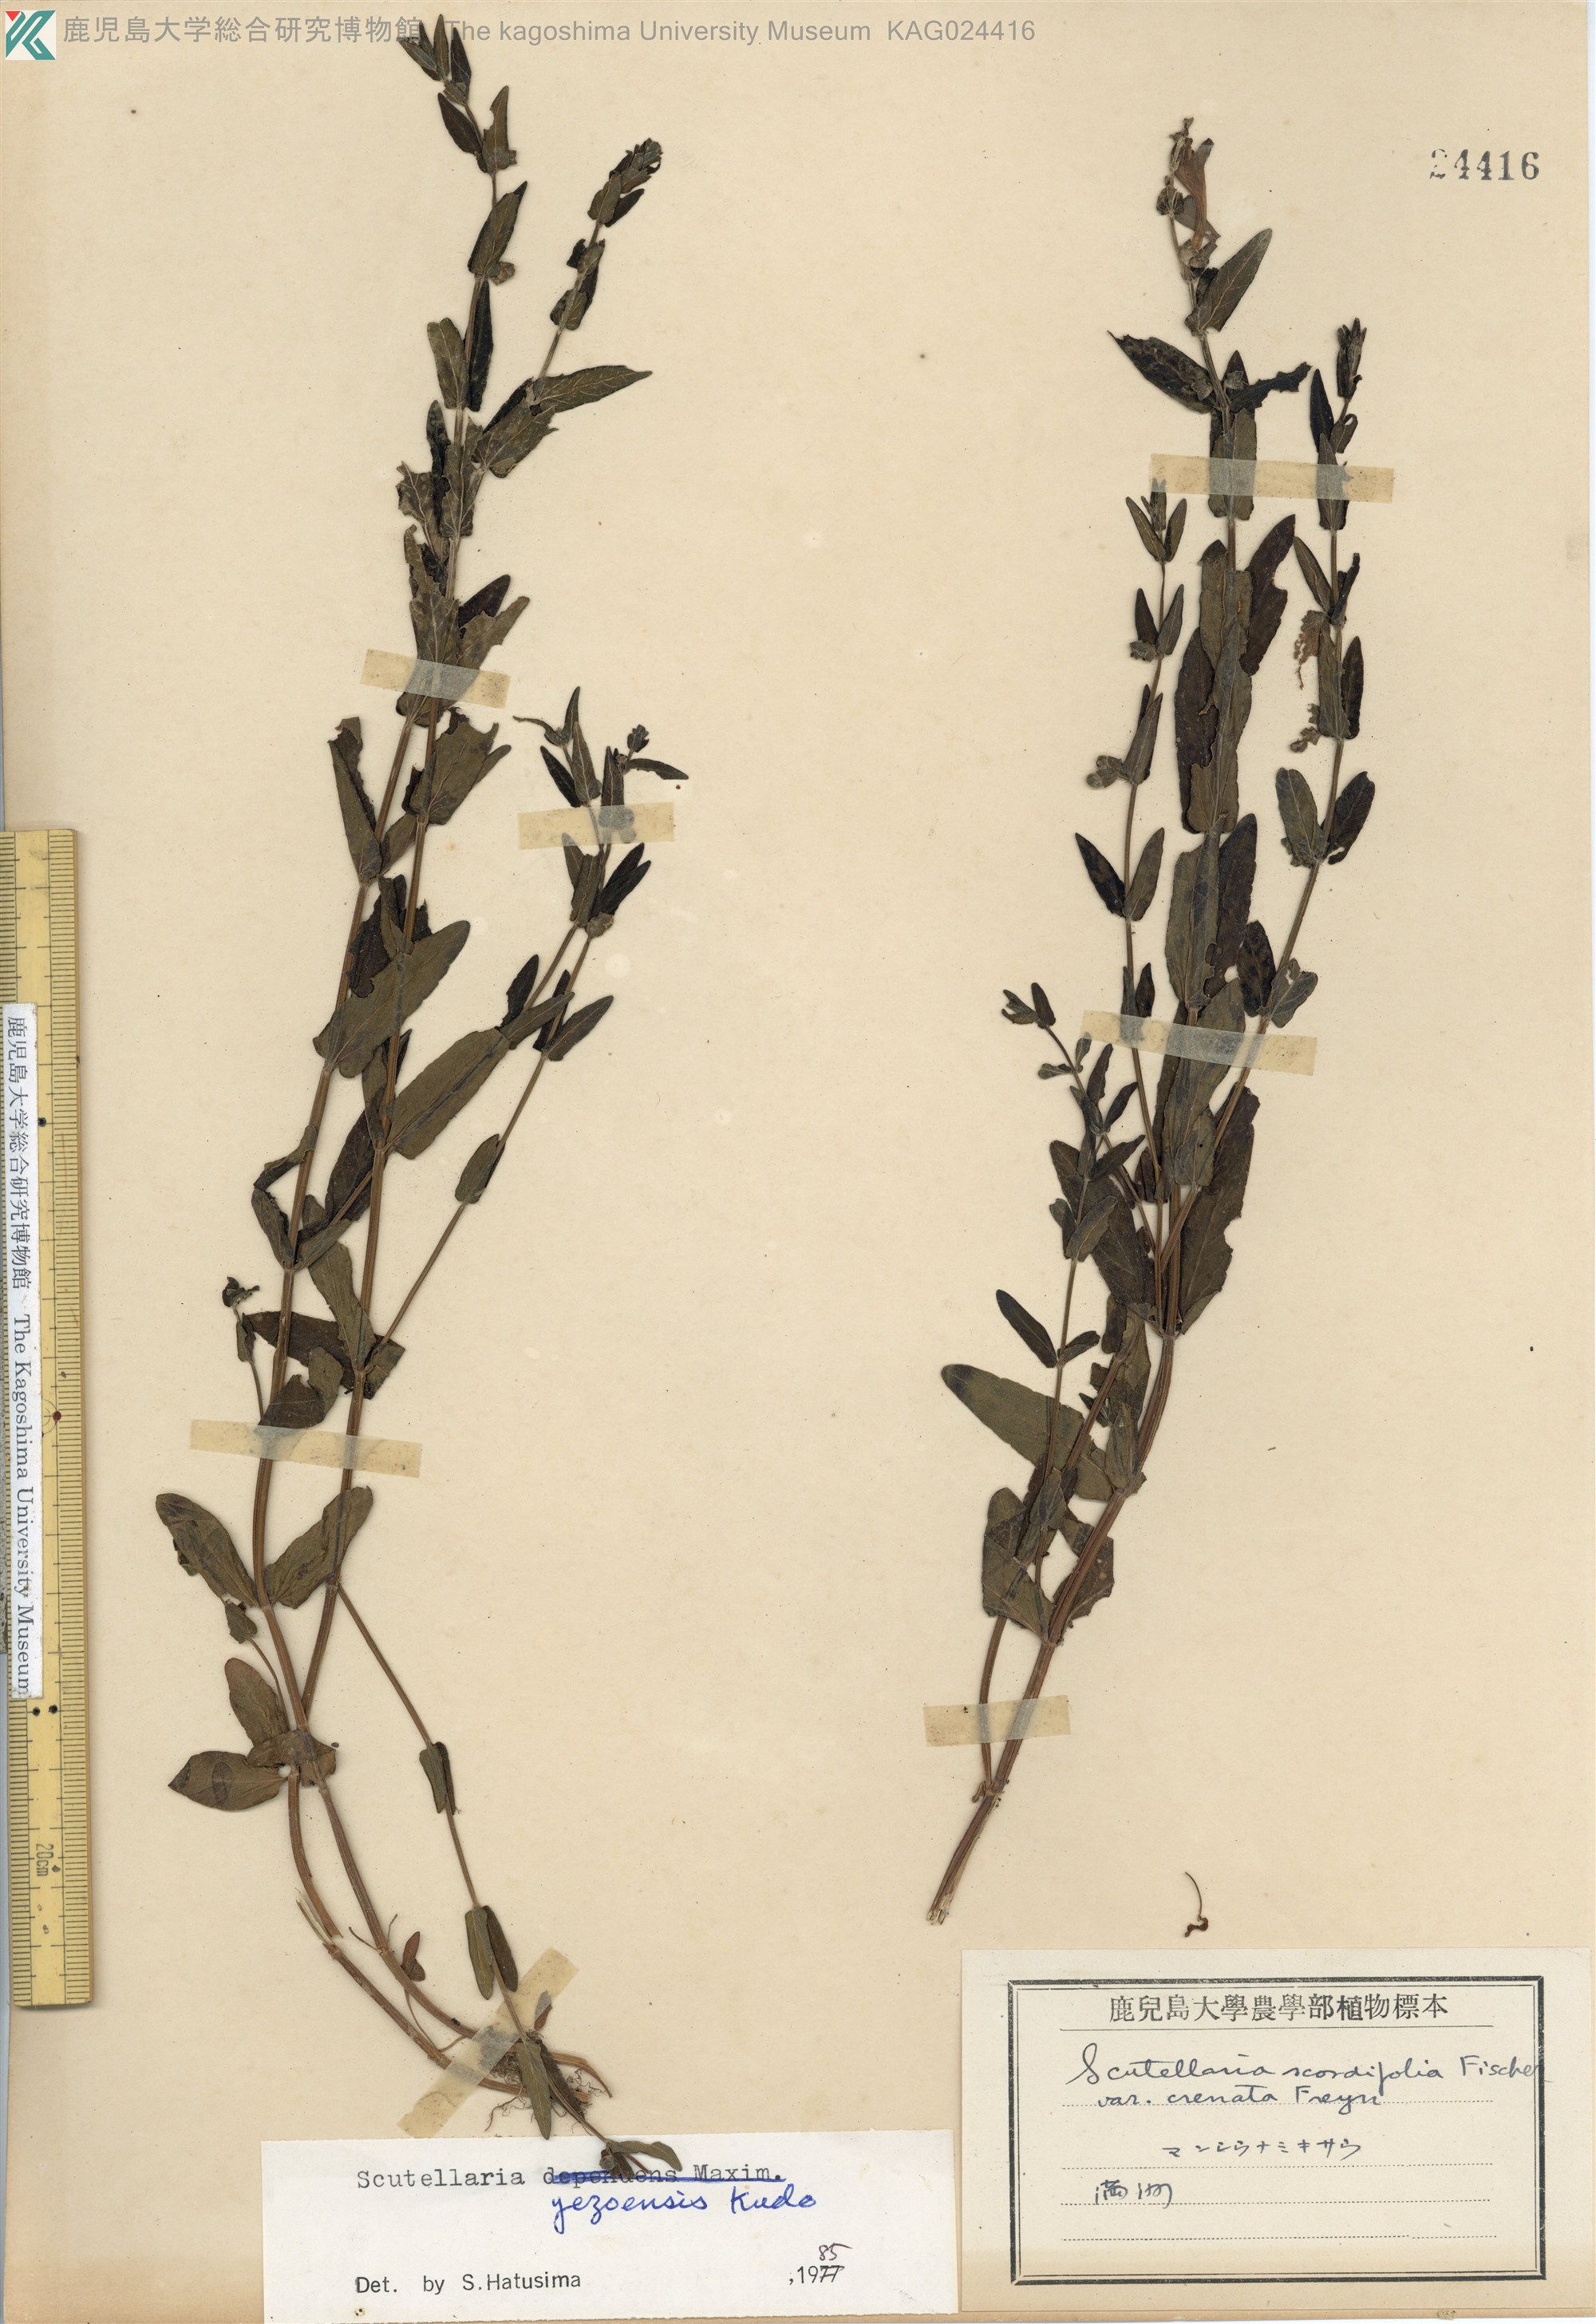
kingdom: Plantae
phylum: Tracheophyta
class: Magnoliopsida
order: Lamiales
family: Lamiaceae
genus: Scutellaria
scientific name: Scutellaria yezoensis
